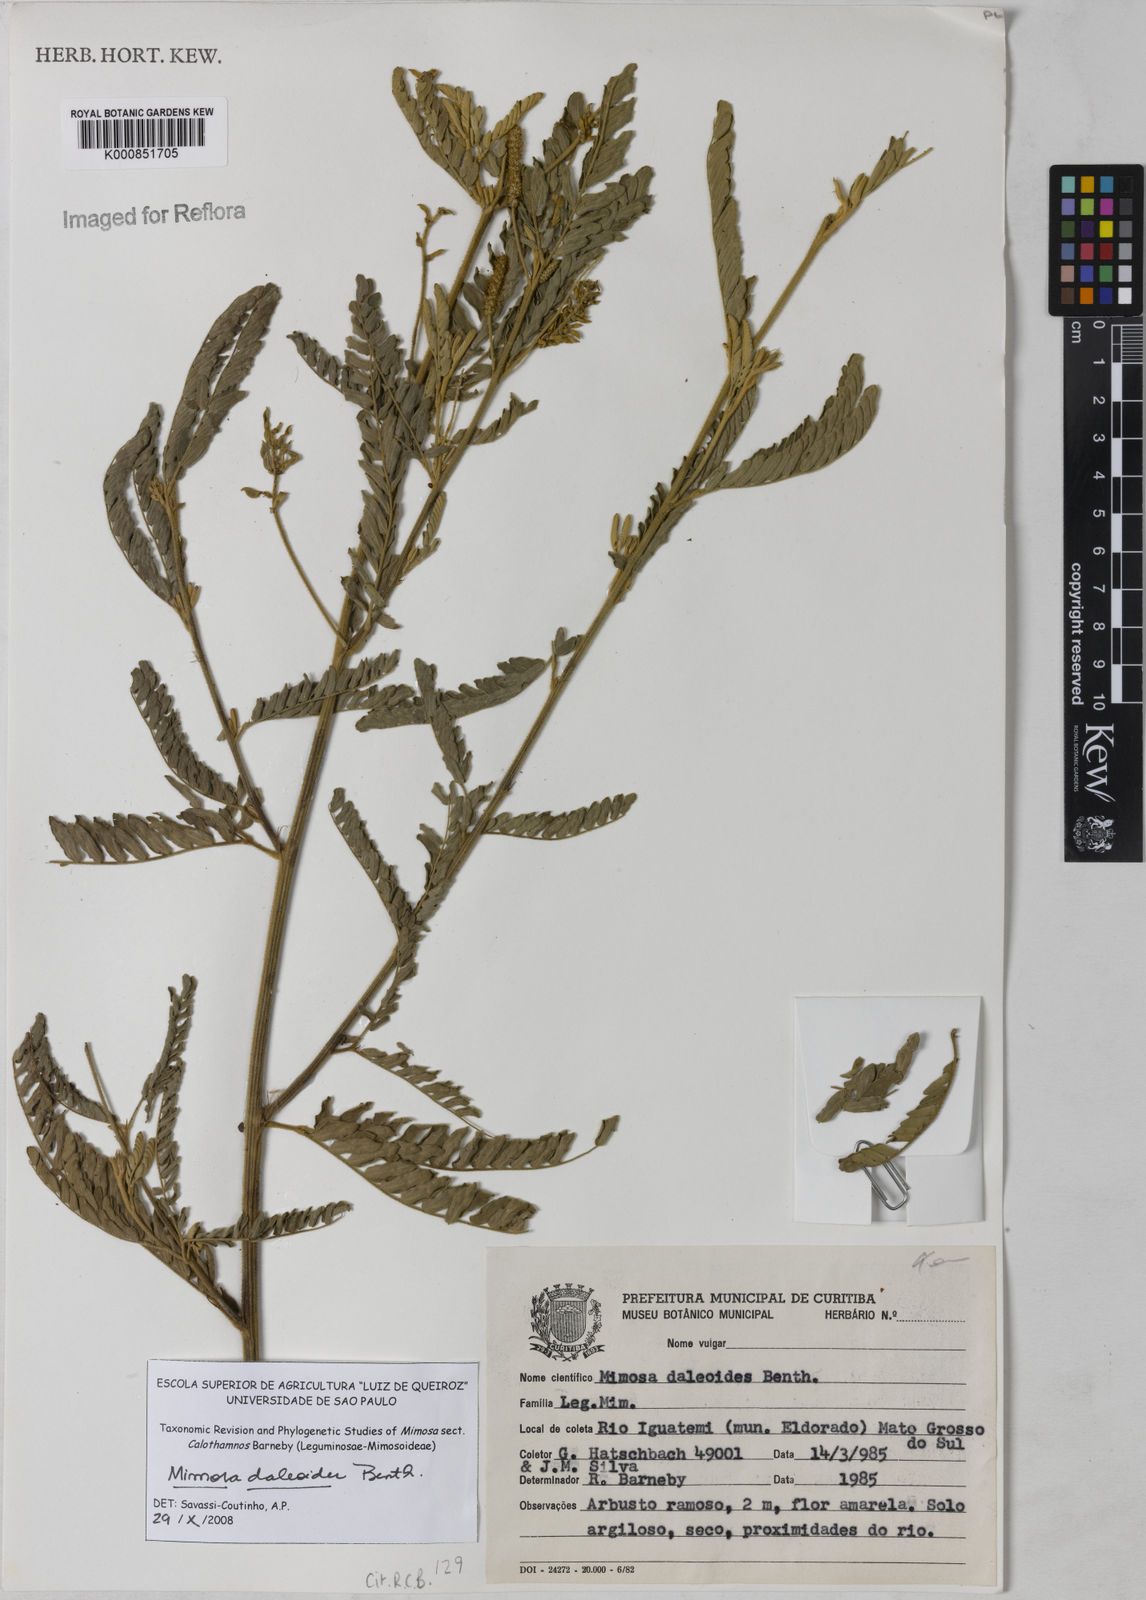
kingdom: Plantae
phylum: Tracheophyta
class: Magnoliopsida
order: Fabales
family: Fabaceae
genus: Mimosa
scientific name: Mimosa daleoides
